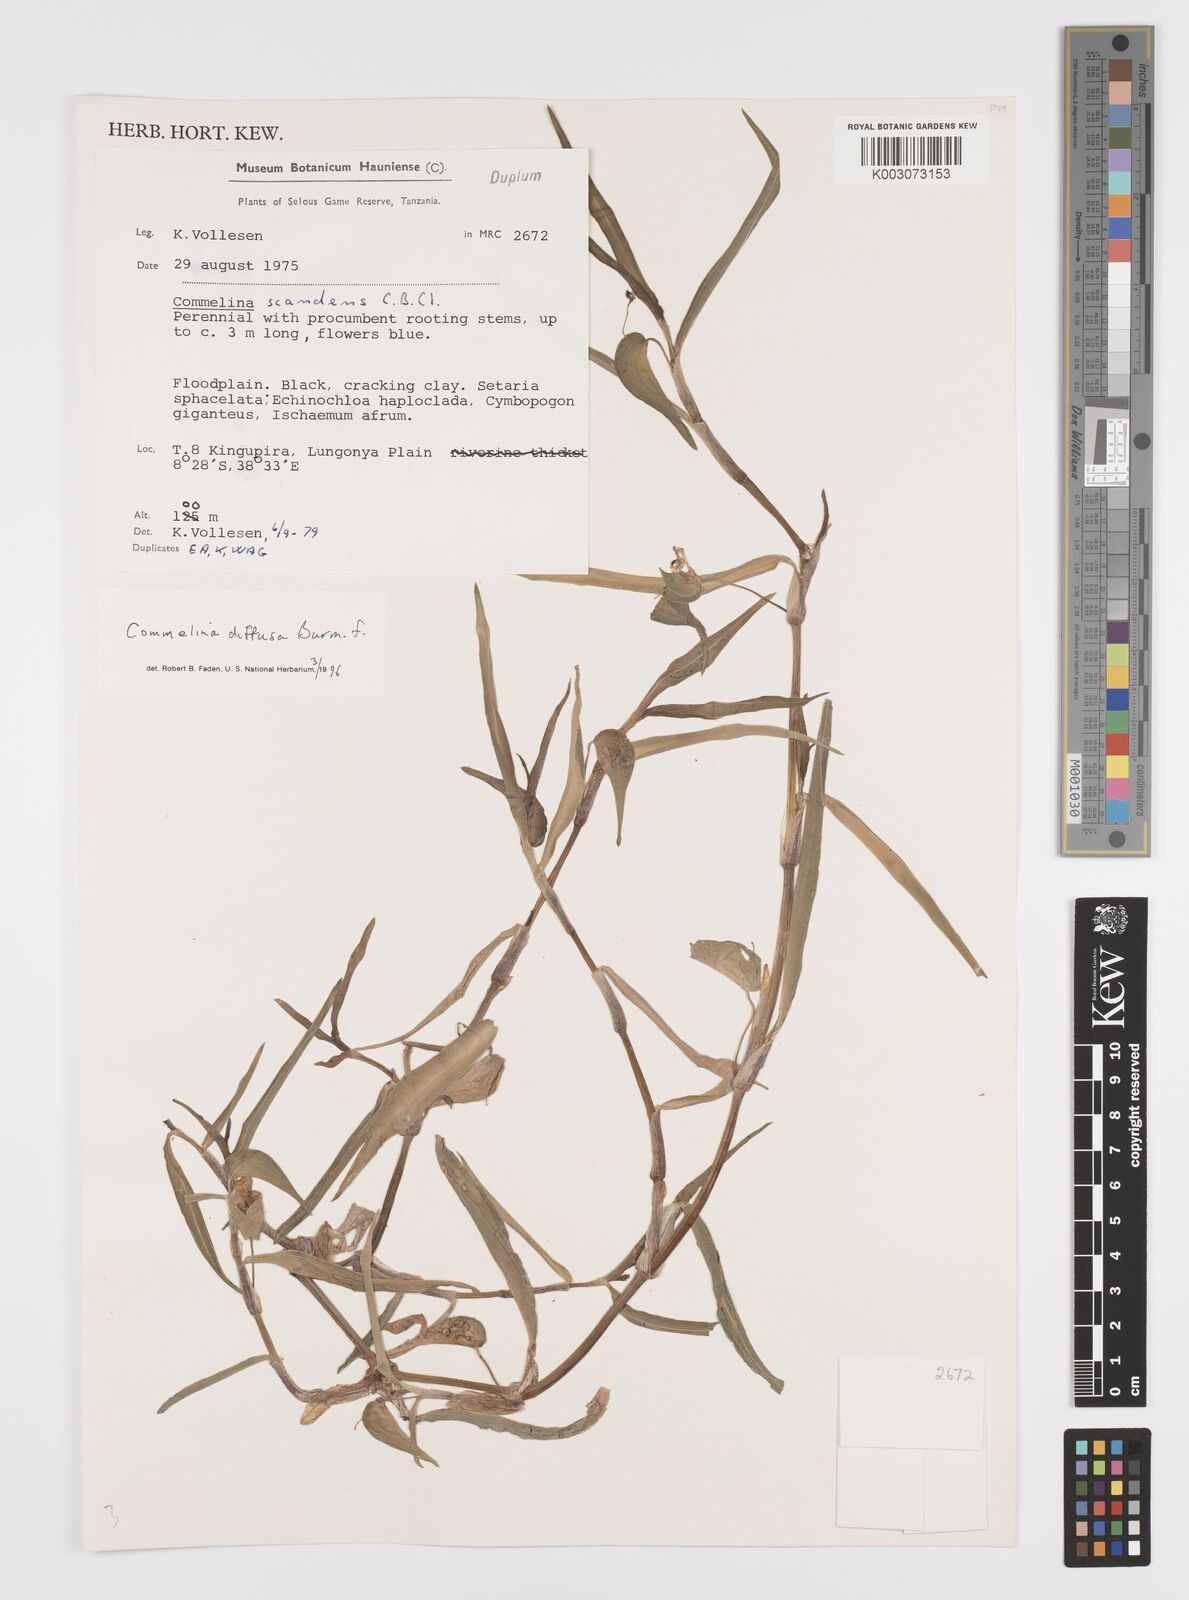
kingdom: Plantae
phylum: Tracheophyta
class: Liliopsida
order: Commelinales
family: Commelinaceae
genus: Commelina
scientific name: Commelina diffusa
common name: Climbing dayflower
